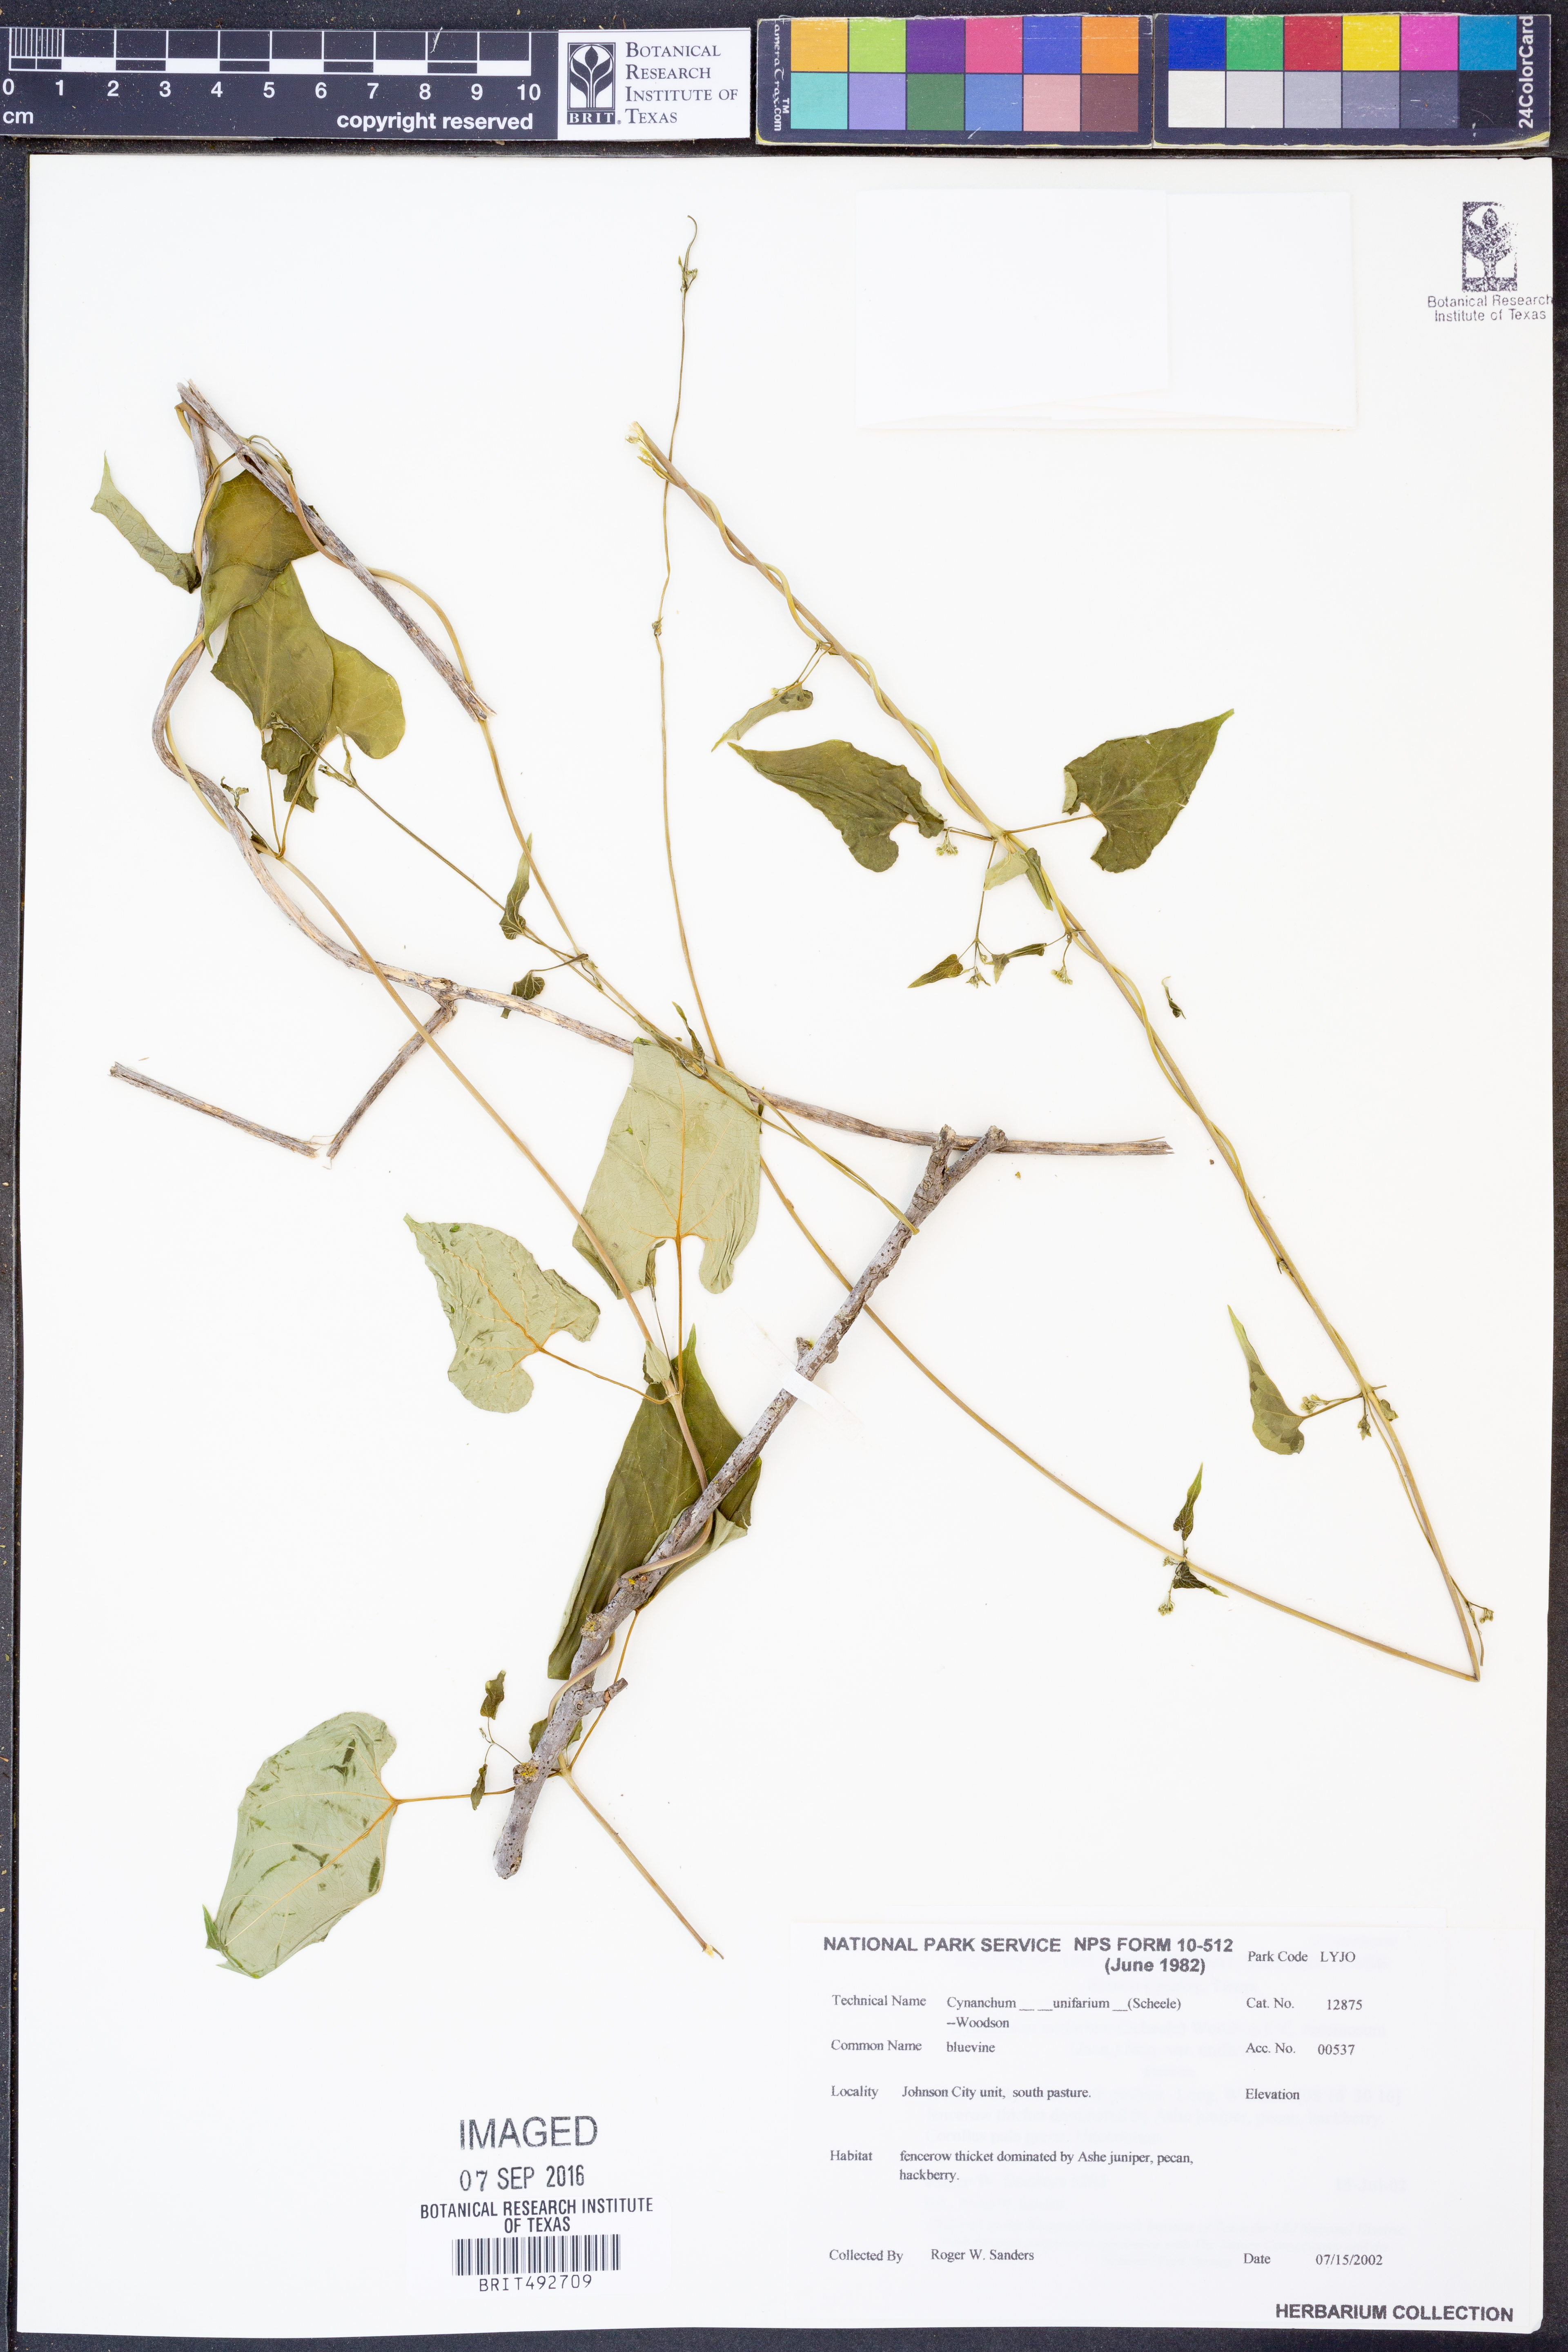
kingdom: Plantae
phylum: Tracheophyta
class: Magnoliopsida
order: Gentianales
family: Apocynaceae
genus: Cynanchum
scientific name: Cynanchum racemosum
